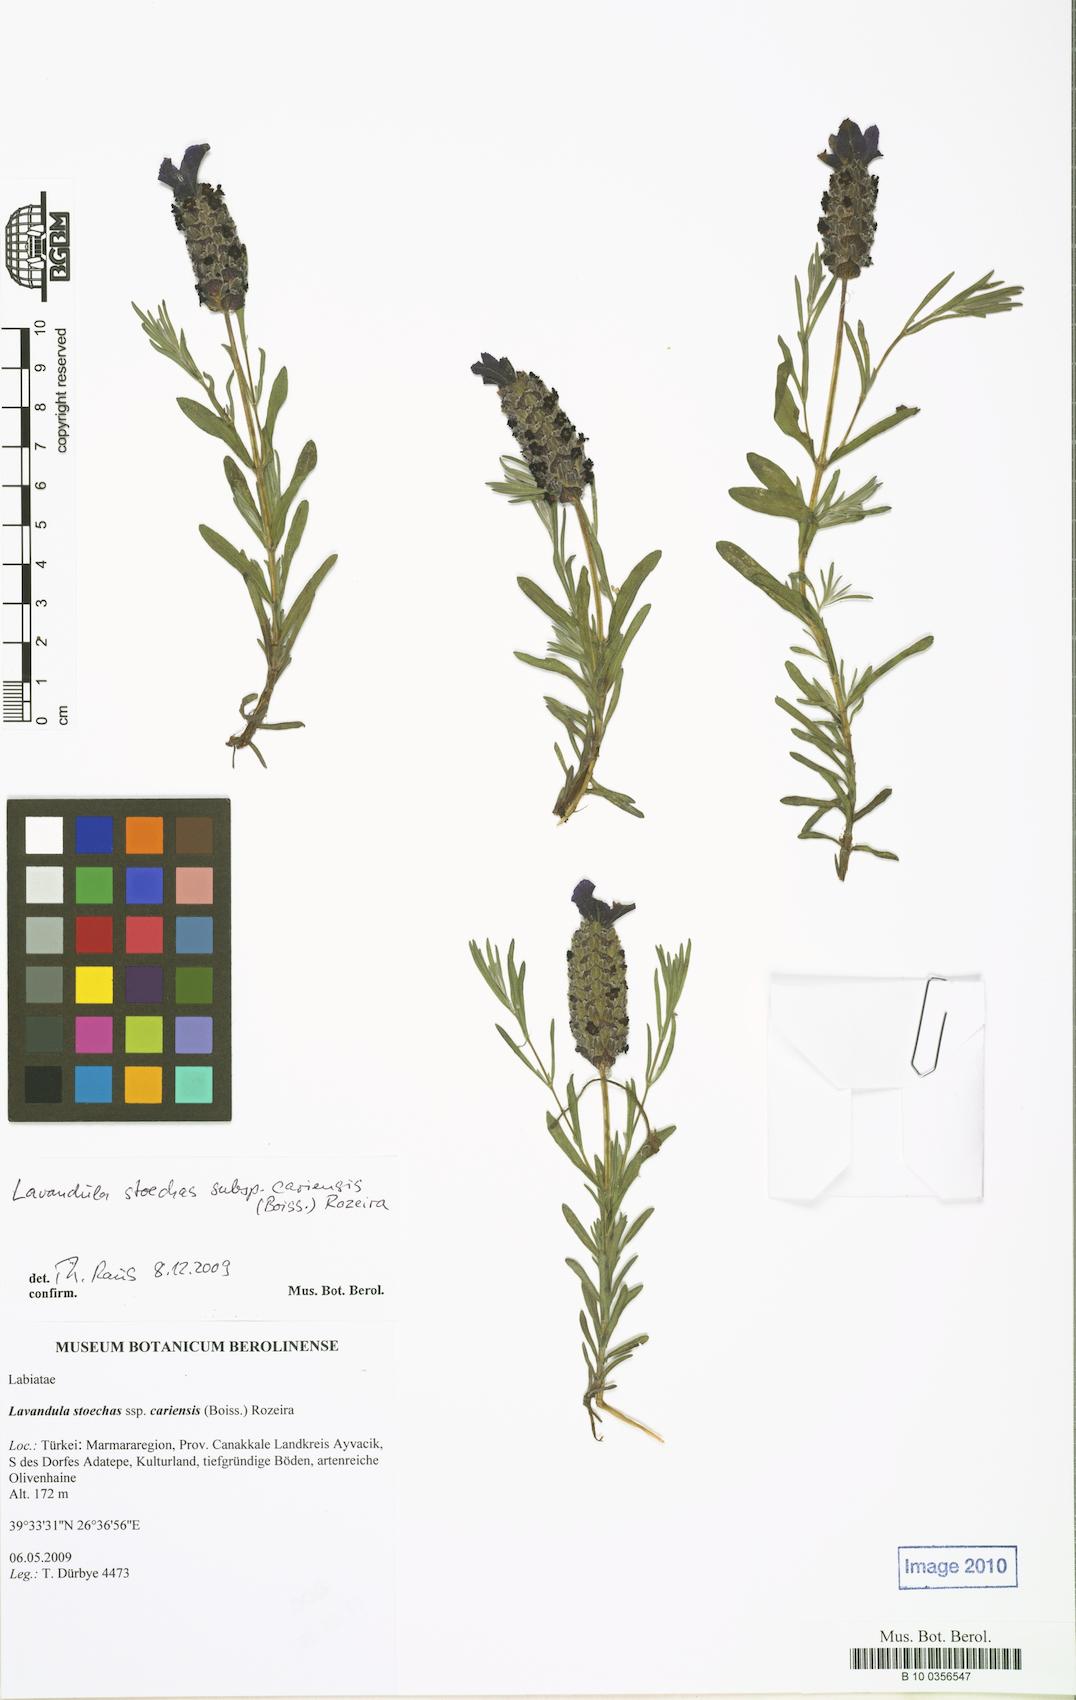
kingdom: Plantae
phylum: Tracheophyta
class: Magnoliopsida
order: Lamiales
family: Lamiaceae
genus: Lavandula
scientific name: Lavandula pedunculata
